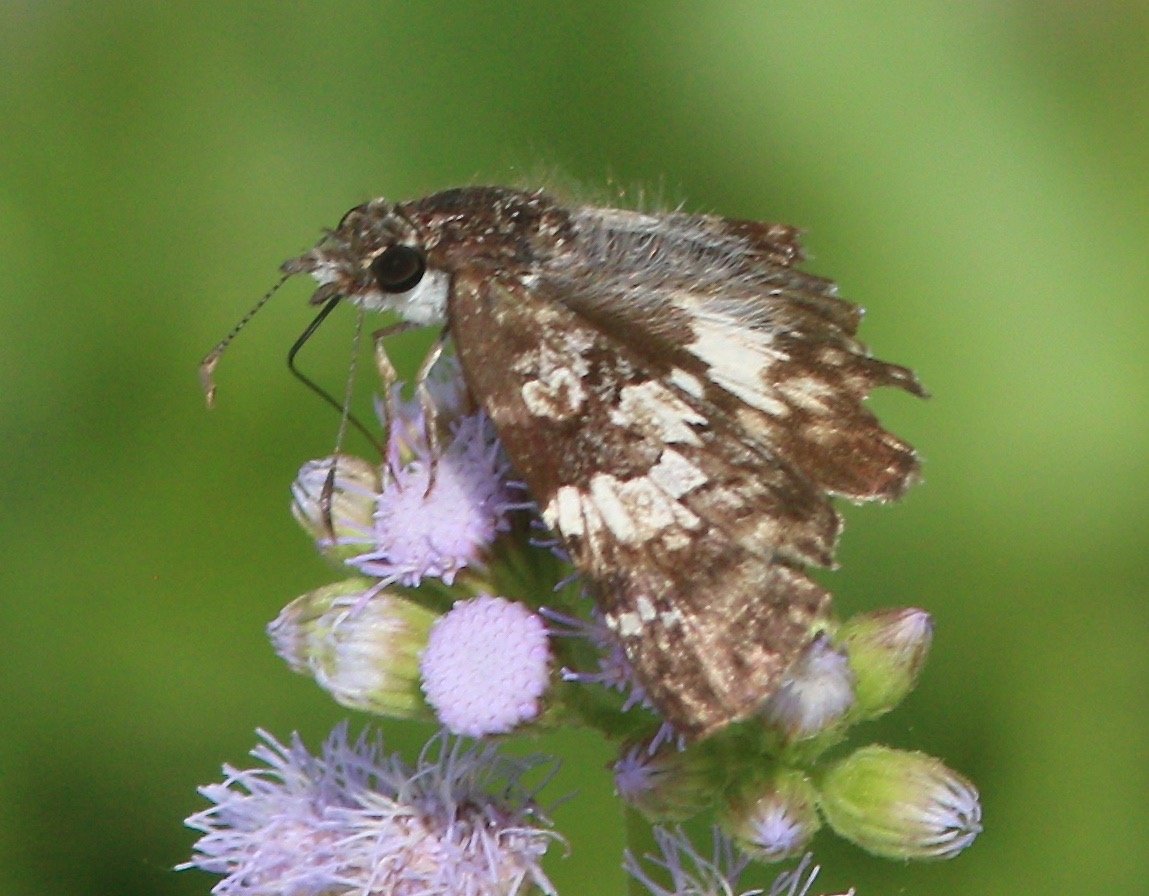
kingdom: Animalia
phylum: Arthropoda
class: Insecta
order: Lepidoptera
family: Hesperiidae
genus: Chiomara
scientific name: Chiomara asychis
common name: White-patched Skipper
